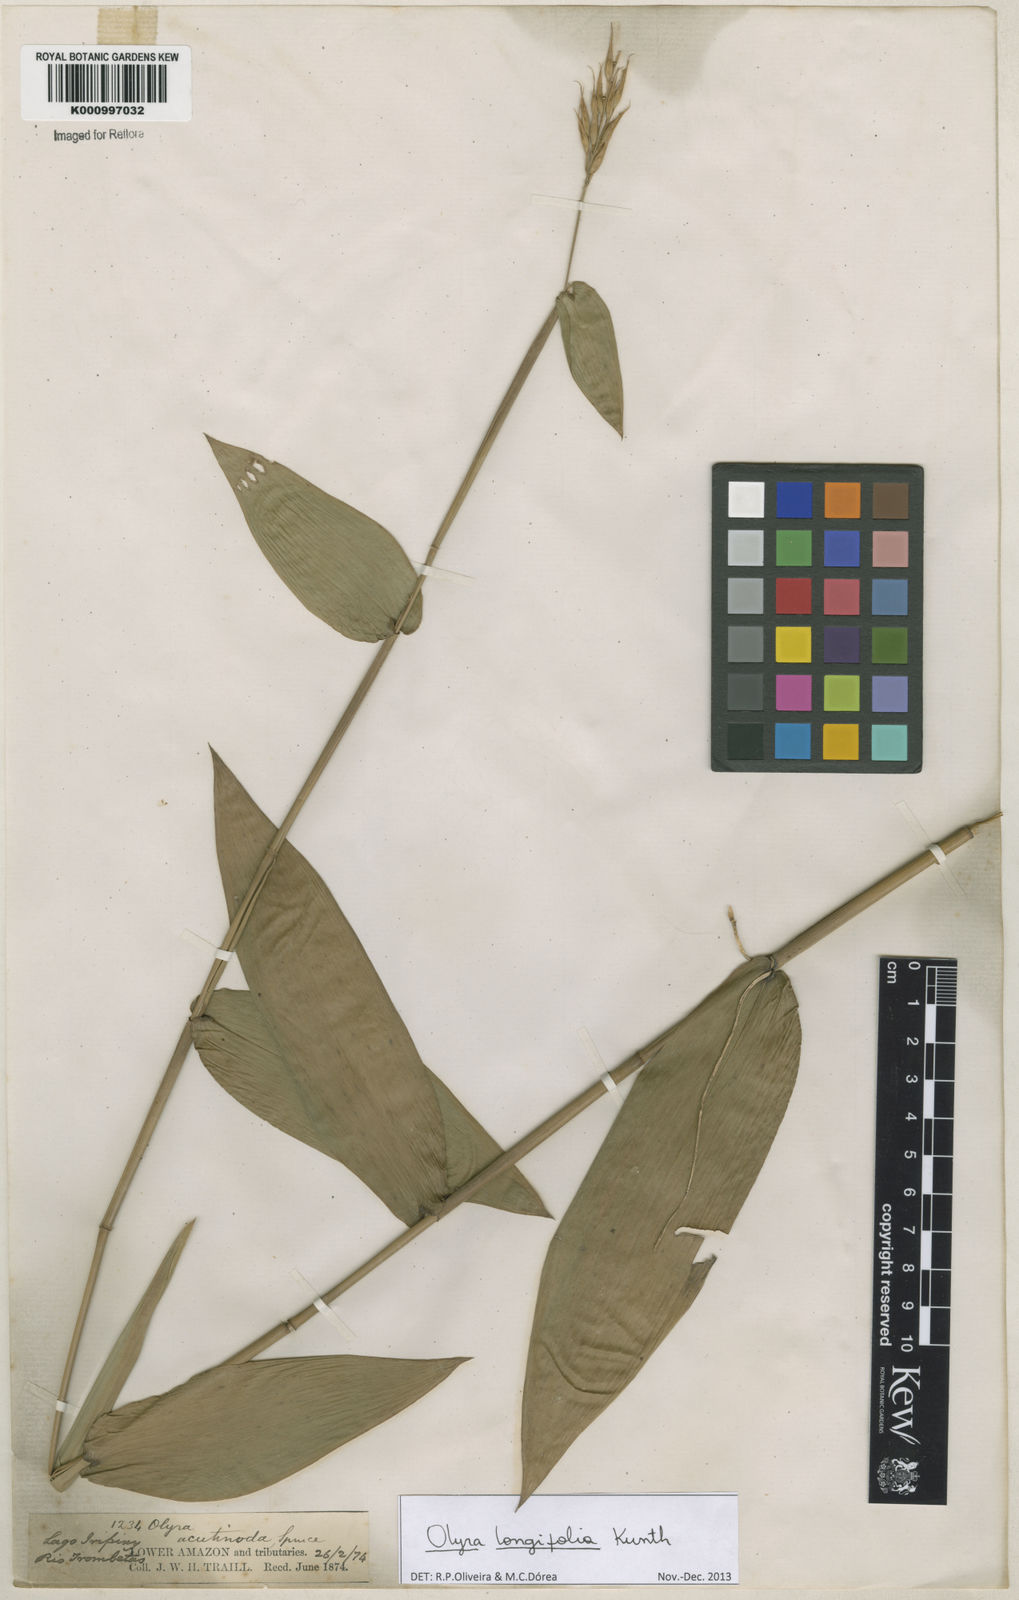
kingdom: Plantae
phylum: Tracheophyta
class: Liliopsida
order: Poales
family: Poaceae
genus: Olyra
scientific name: Olyra longifolia
